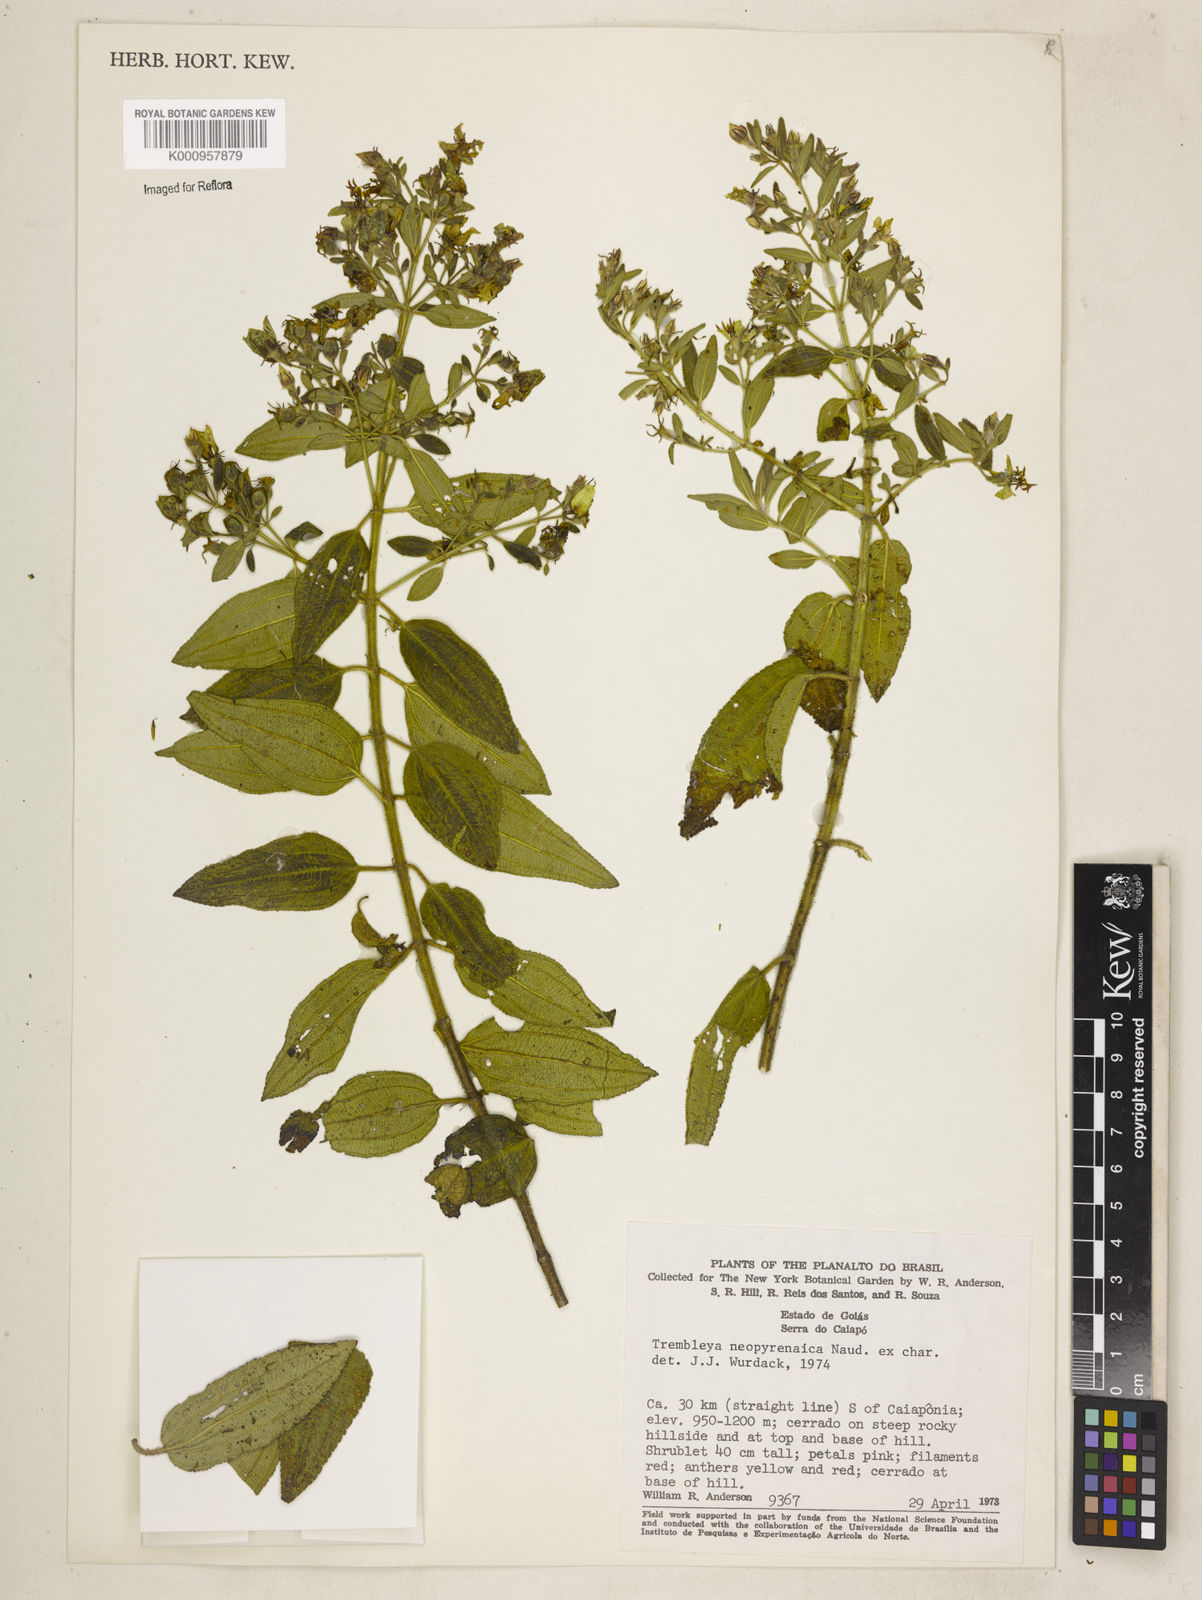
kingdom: Plantae
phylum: Tracheophyta
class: Magnoliopsida
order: Myrtales
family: Melastomataceae
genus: Microlicia
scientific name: Microlicia neopyrenaica
